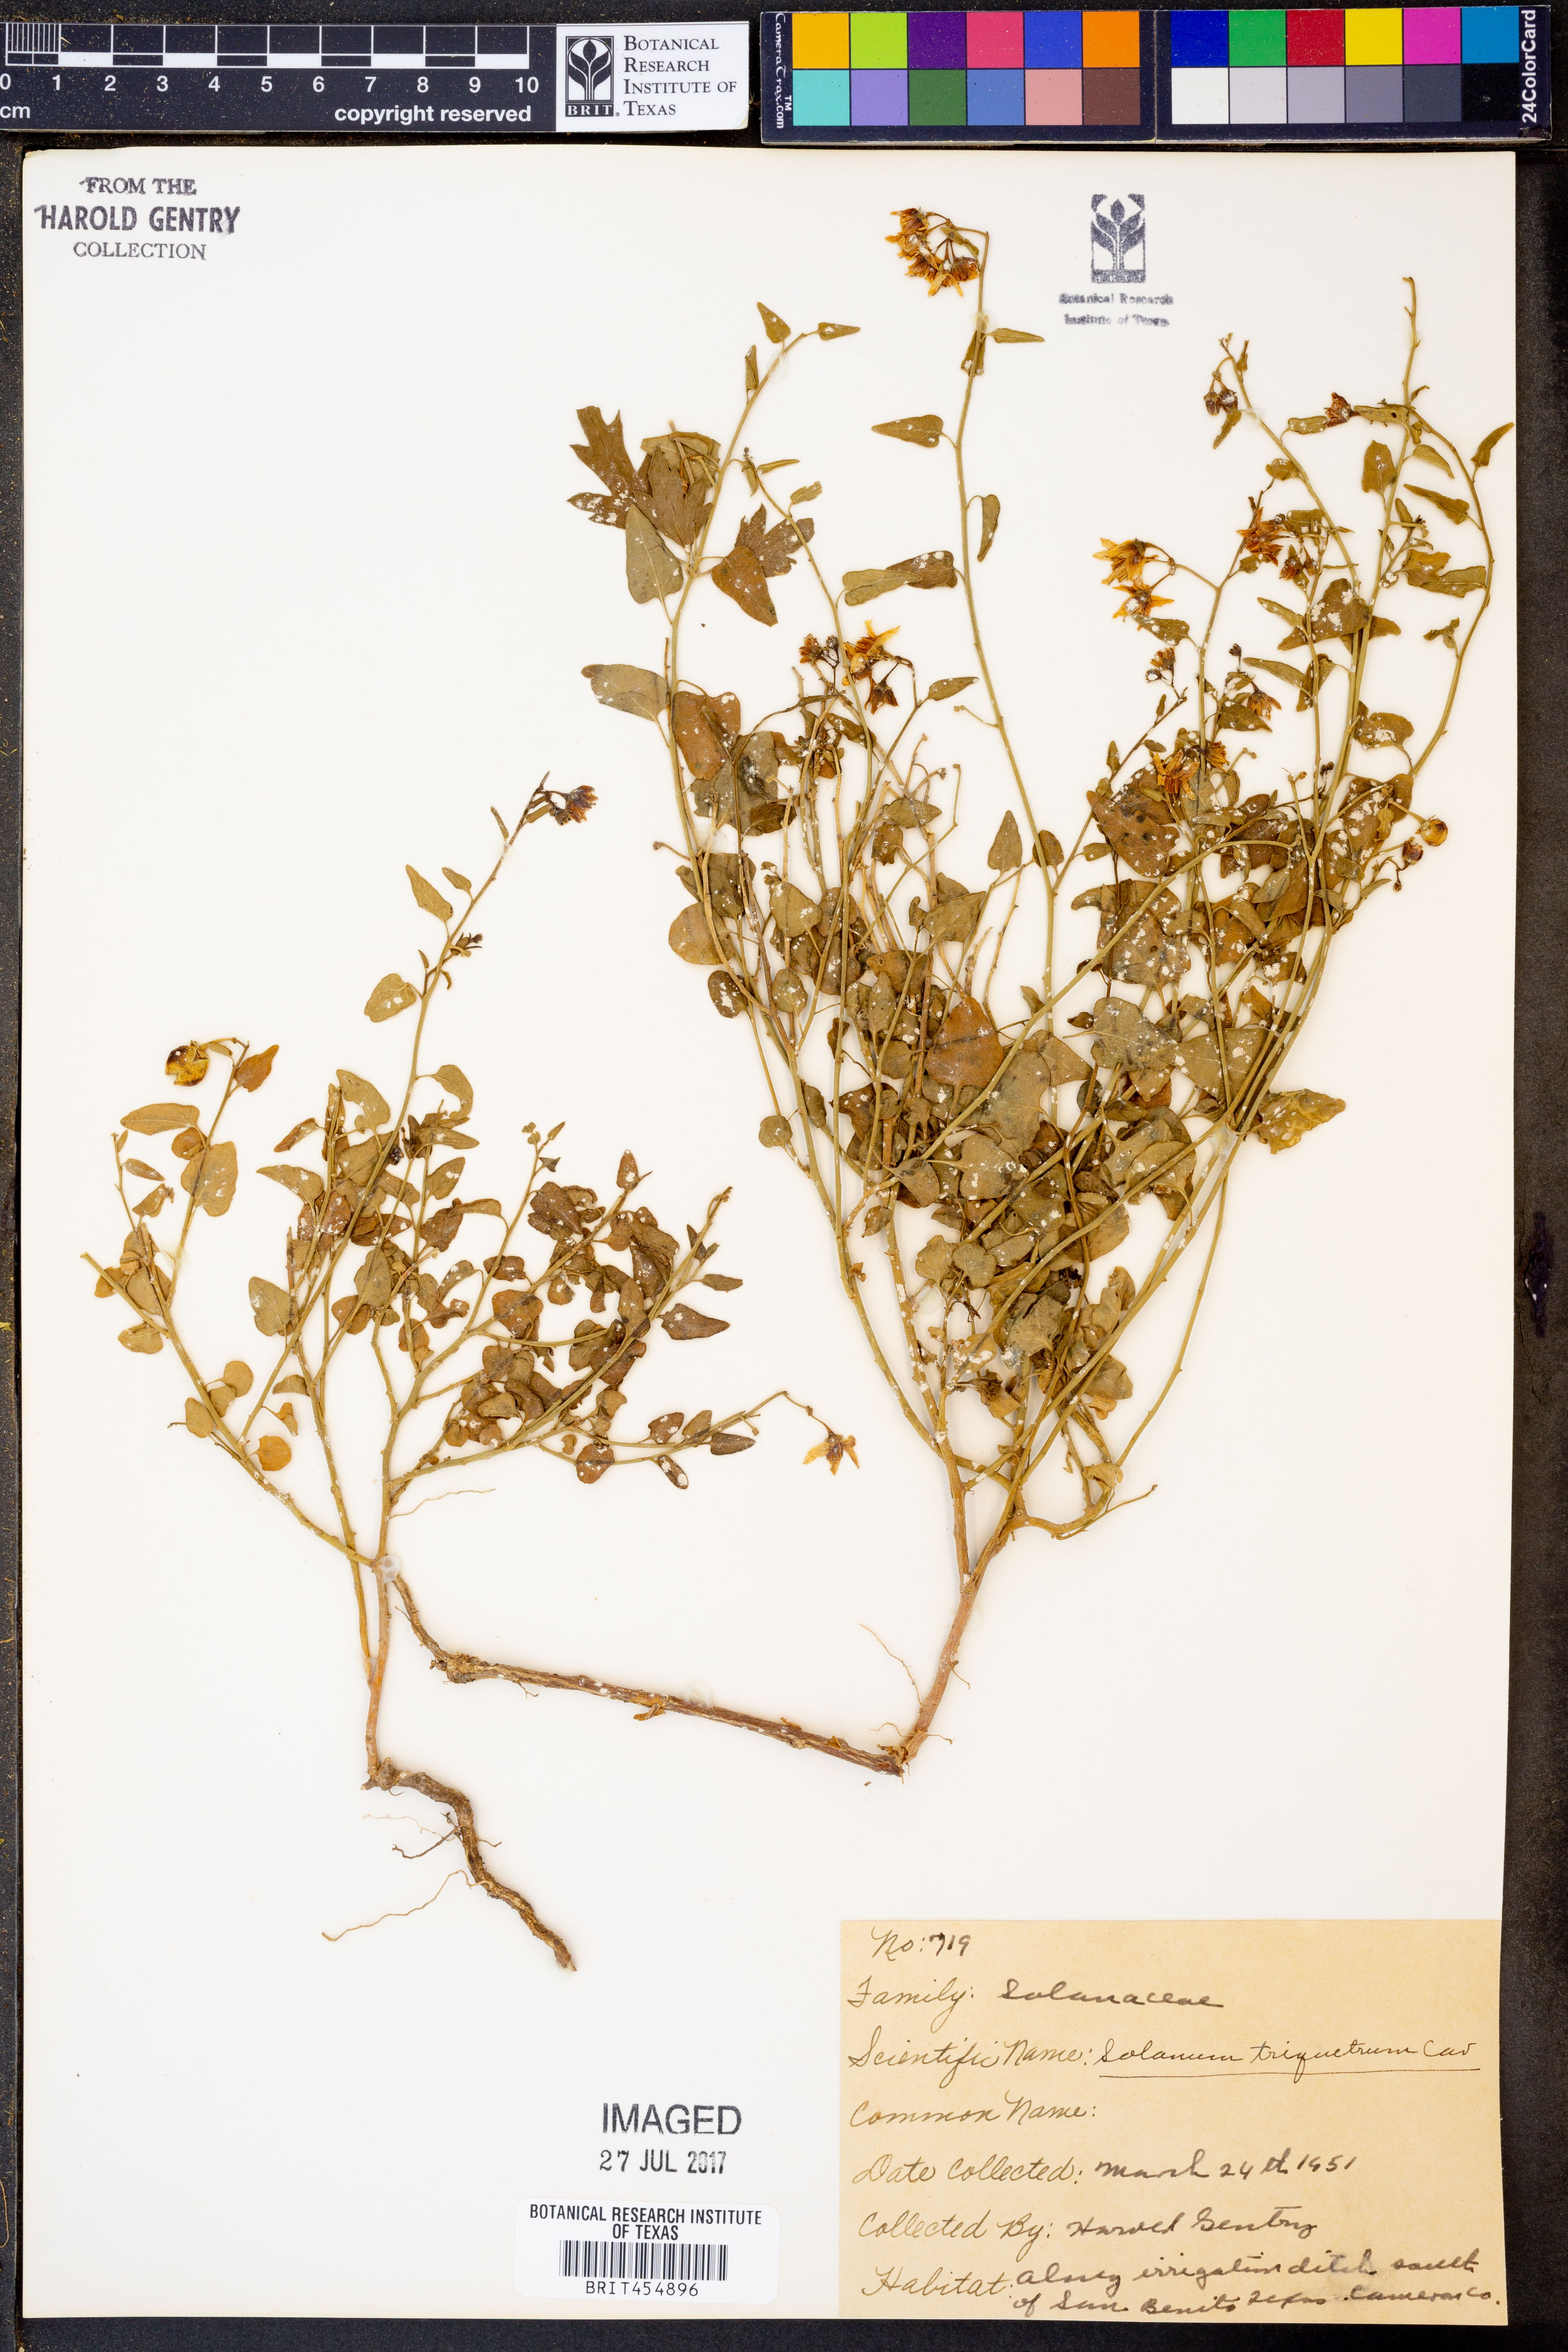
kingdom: Plantae
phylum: Tracheophyta
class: Magnoliopsida
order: Solanales
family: Solanaceae
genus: Solanum
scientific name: Solanum triquetrum
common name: Texas nightshade
